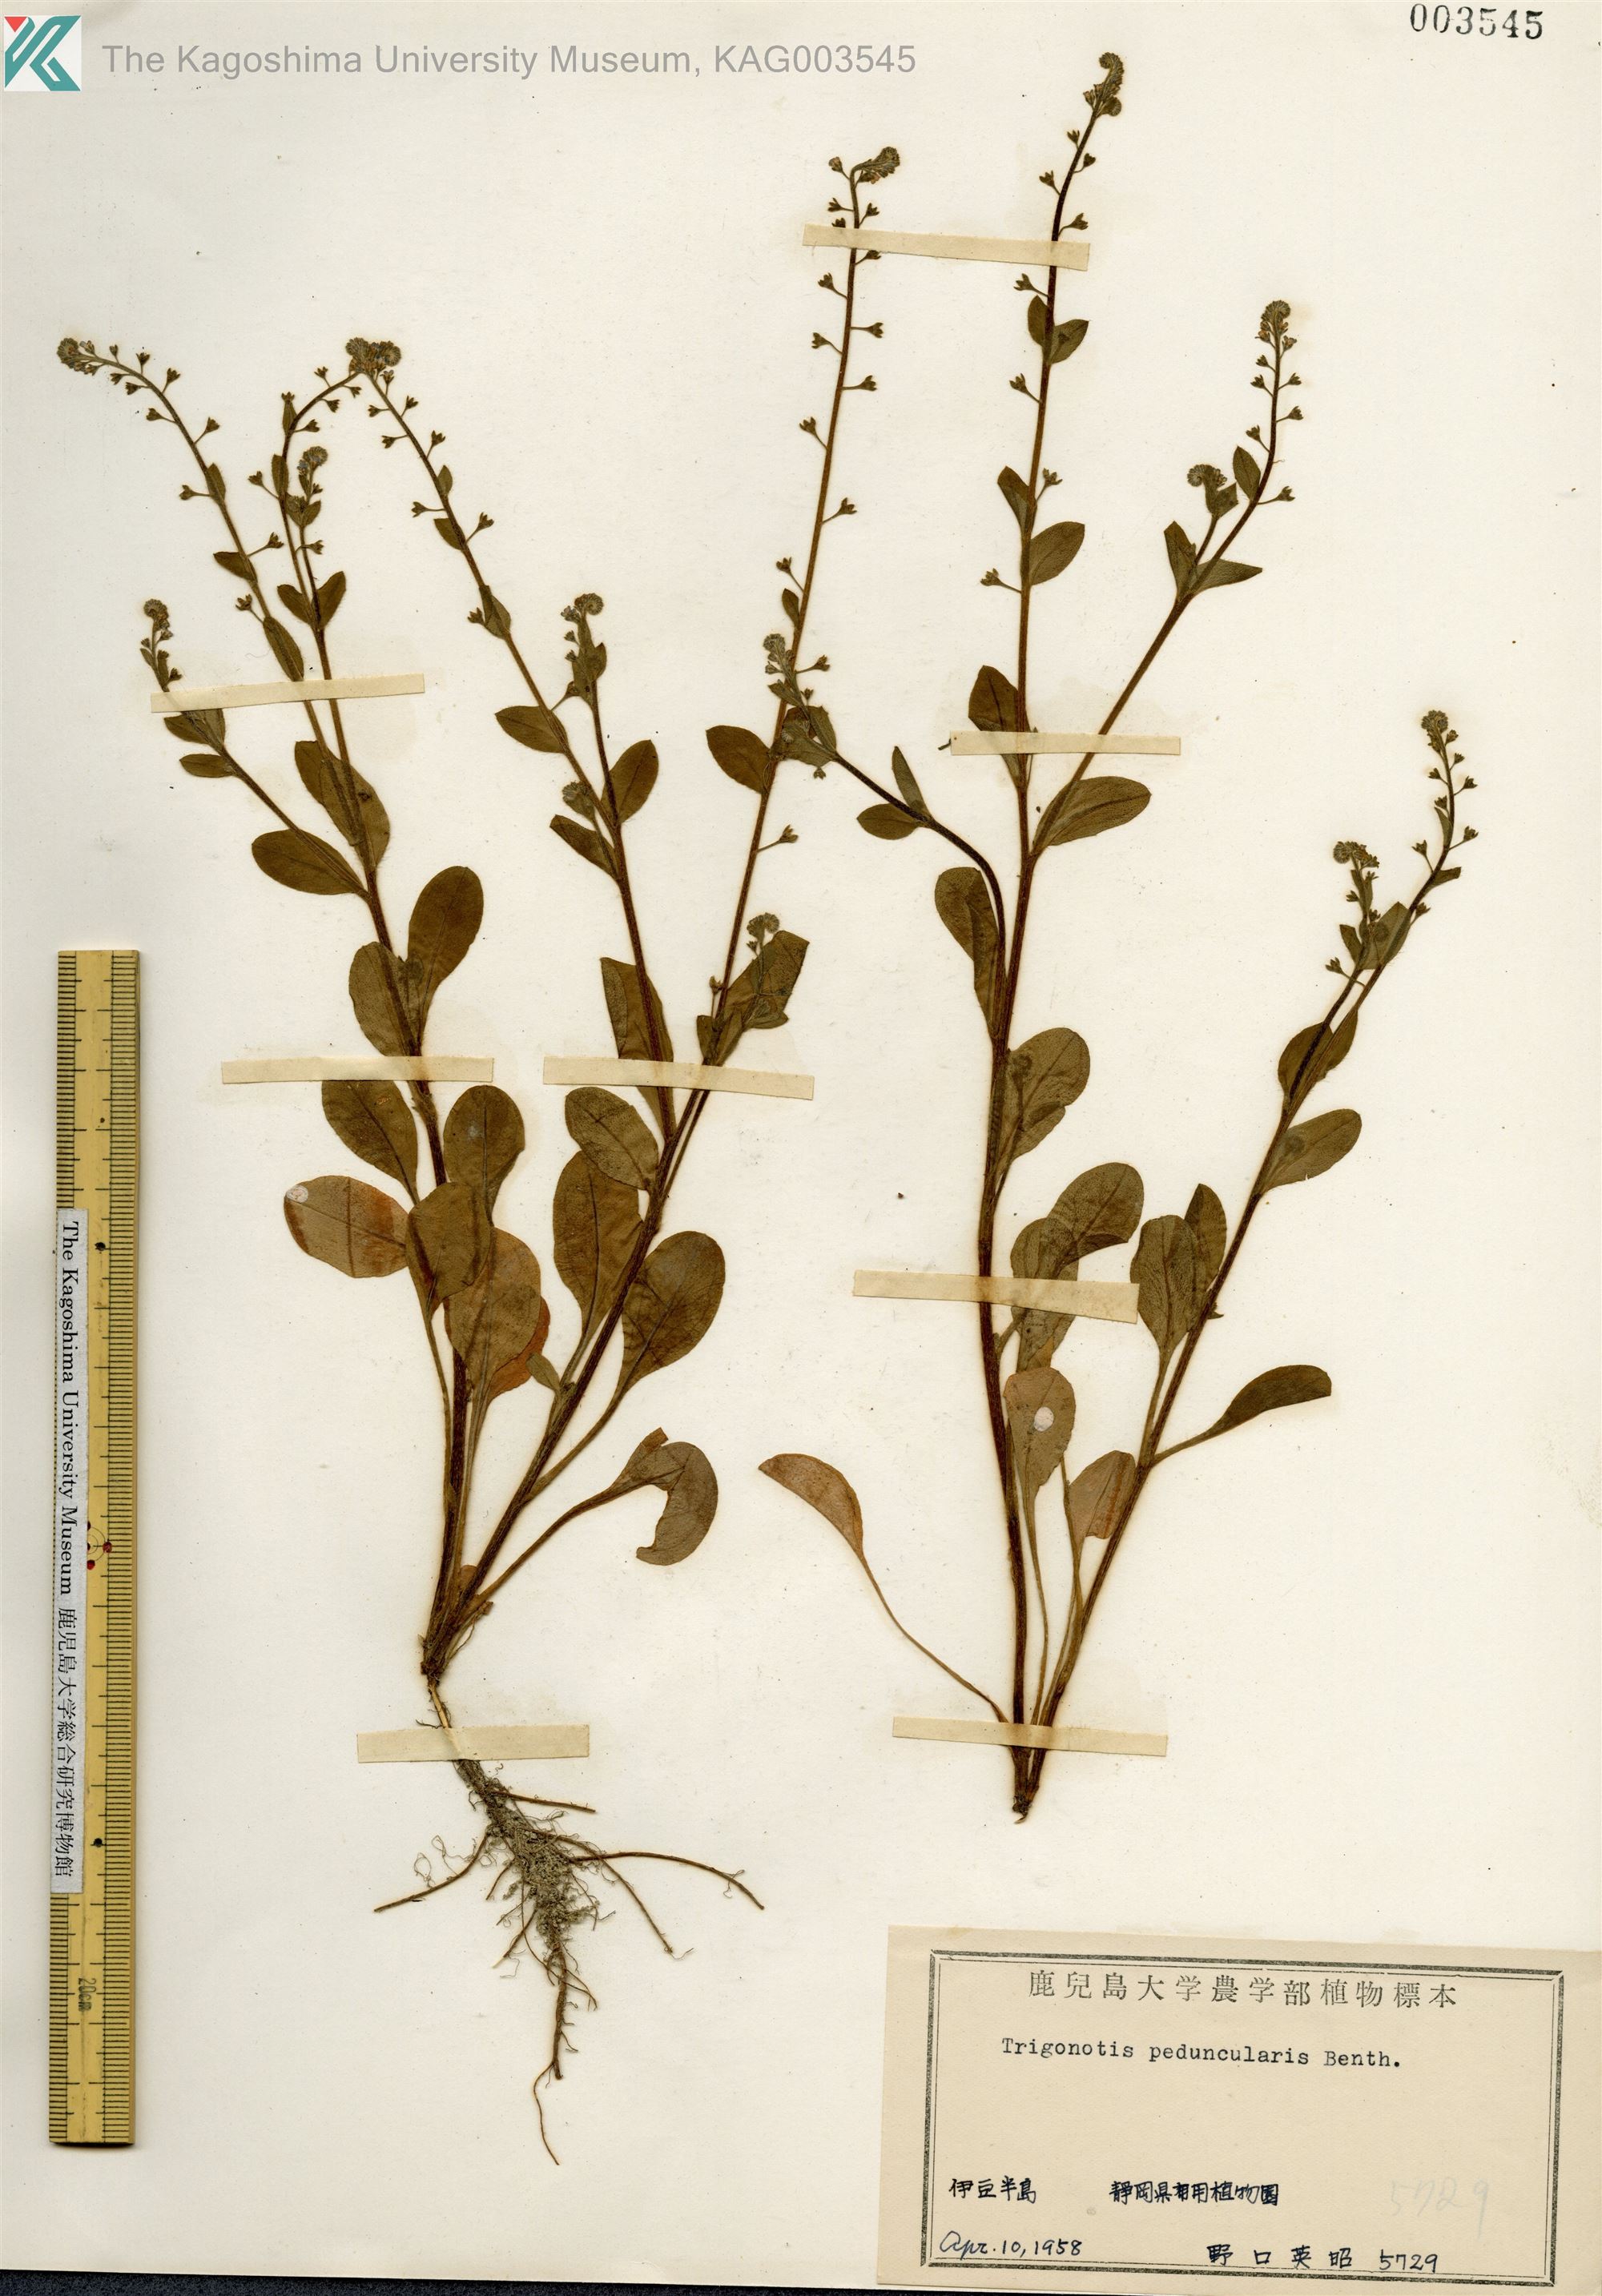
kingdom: Plantae
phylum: Tracheophyta
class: Magnoliopsida
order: Boraginales
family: Boraginaceae
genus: Trigonotis
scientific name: Trigonotis peduncularis
